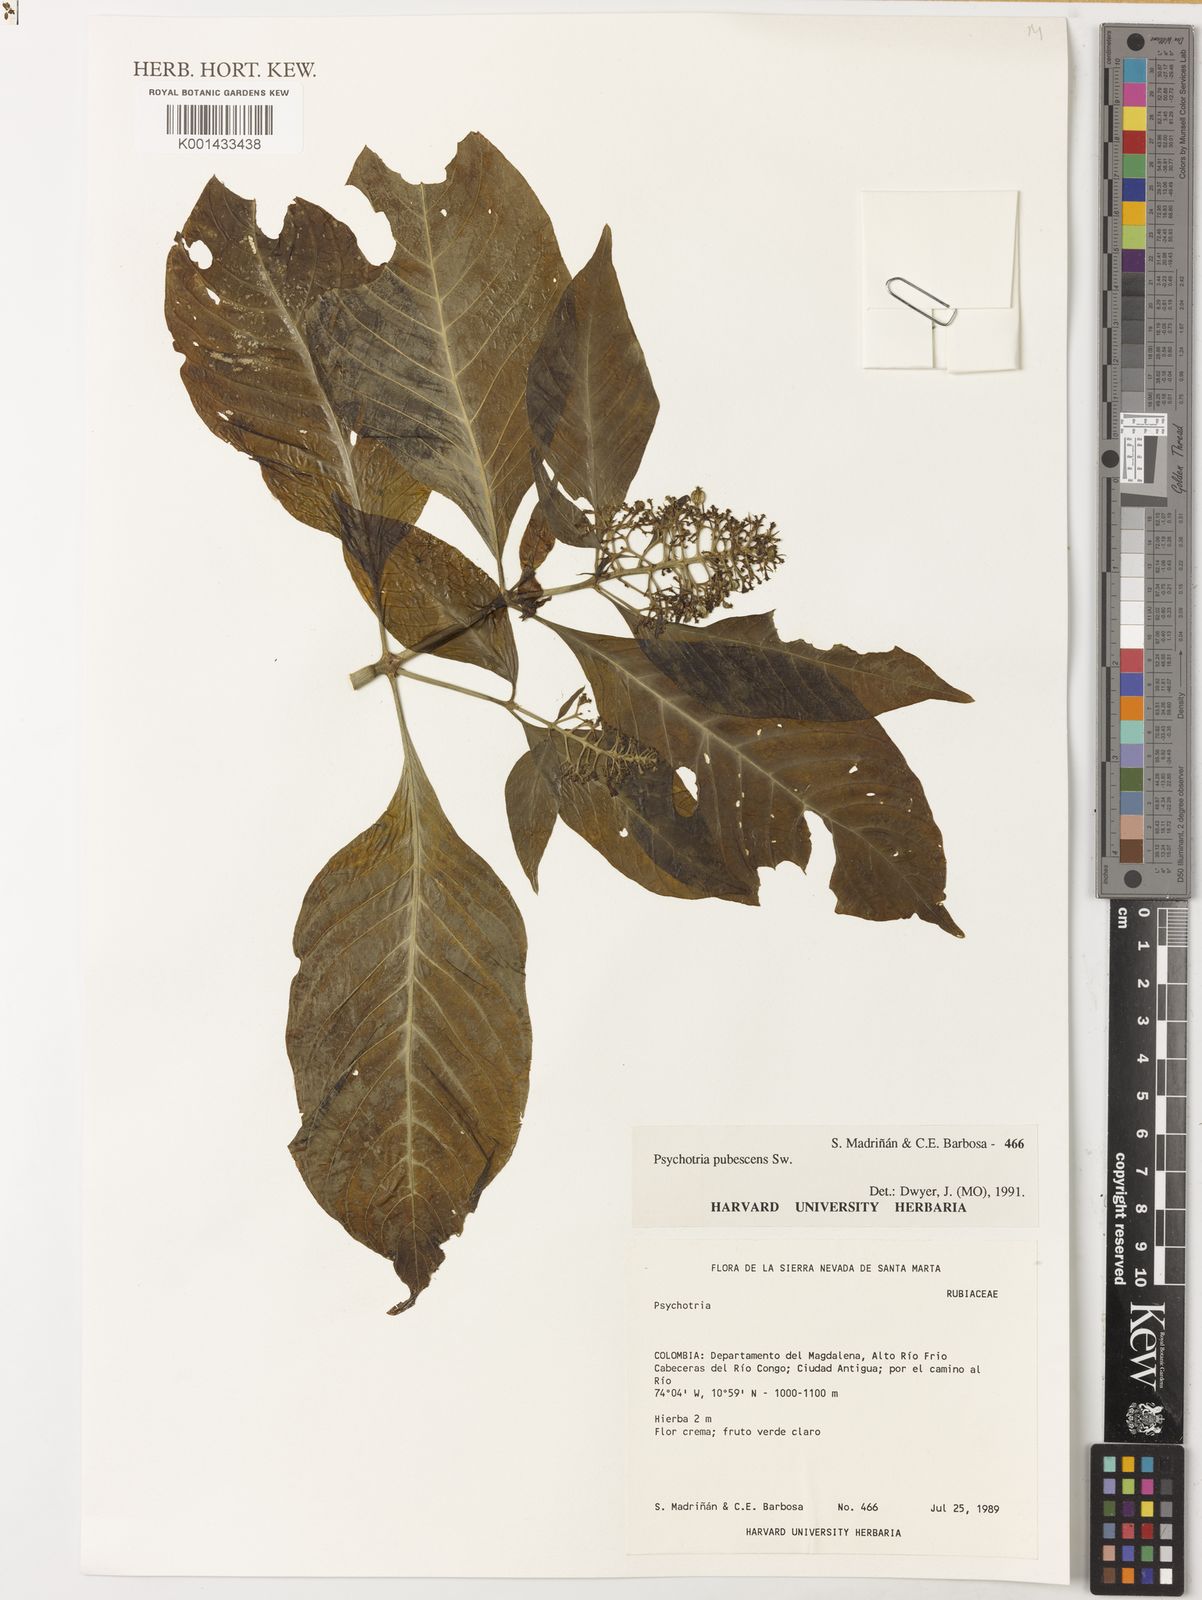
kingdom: Plantae
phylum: Tracheophyta
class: Magnoliopsida
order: Gentianales
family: Rubiaceae
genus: Palicourea
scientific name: Palicourea pubescens
